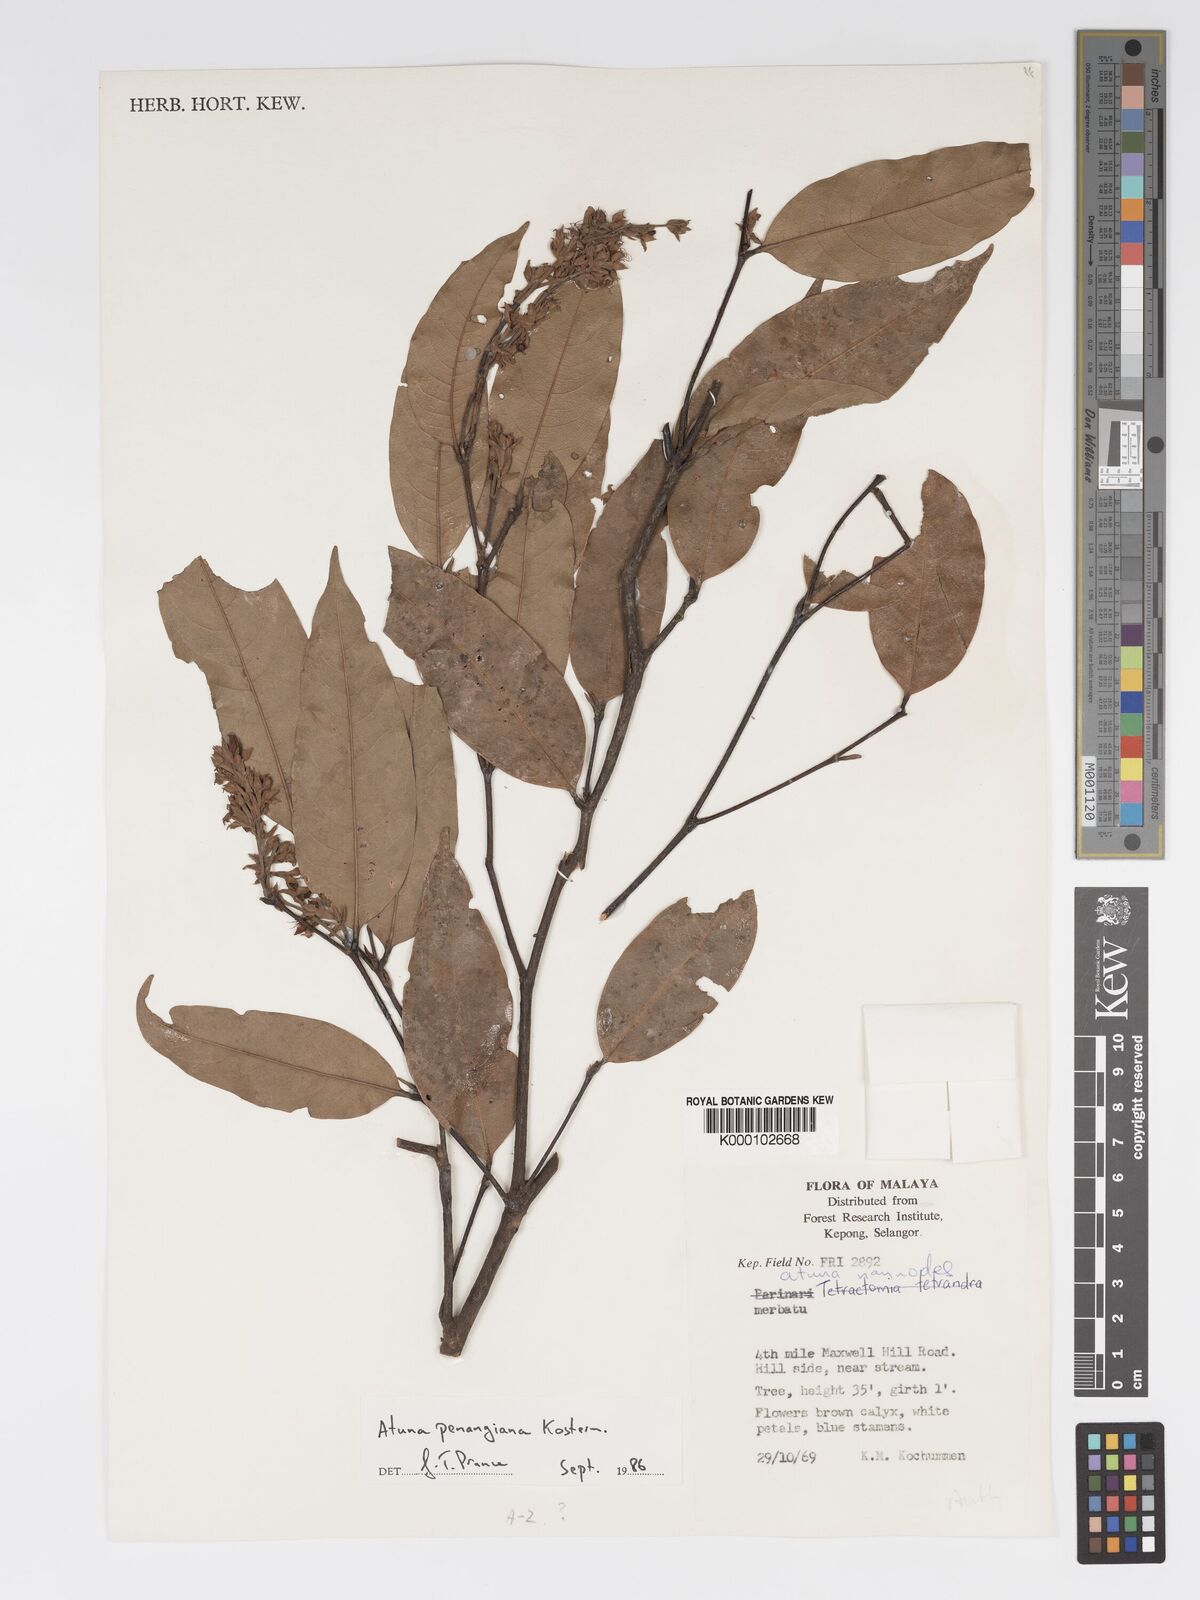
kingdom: Plantae
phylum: Tracheophyta
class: Magnoliopsida
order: Malpighiales
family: Chrysobalanaceae
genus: Atuna
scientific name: Atuna penangiana
